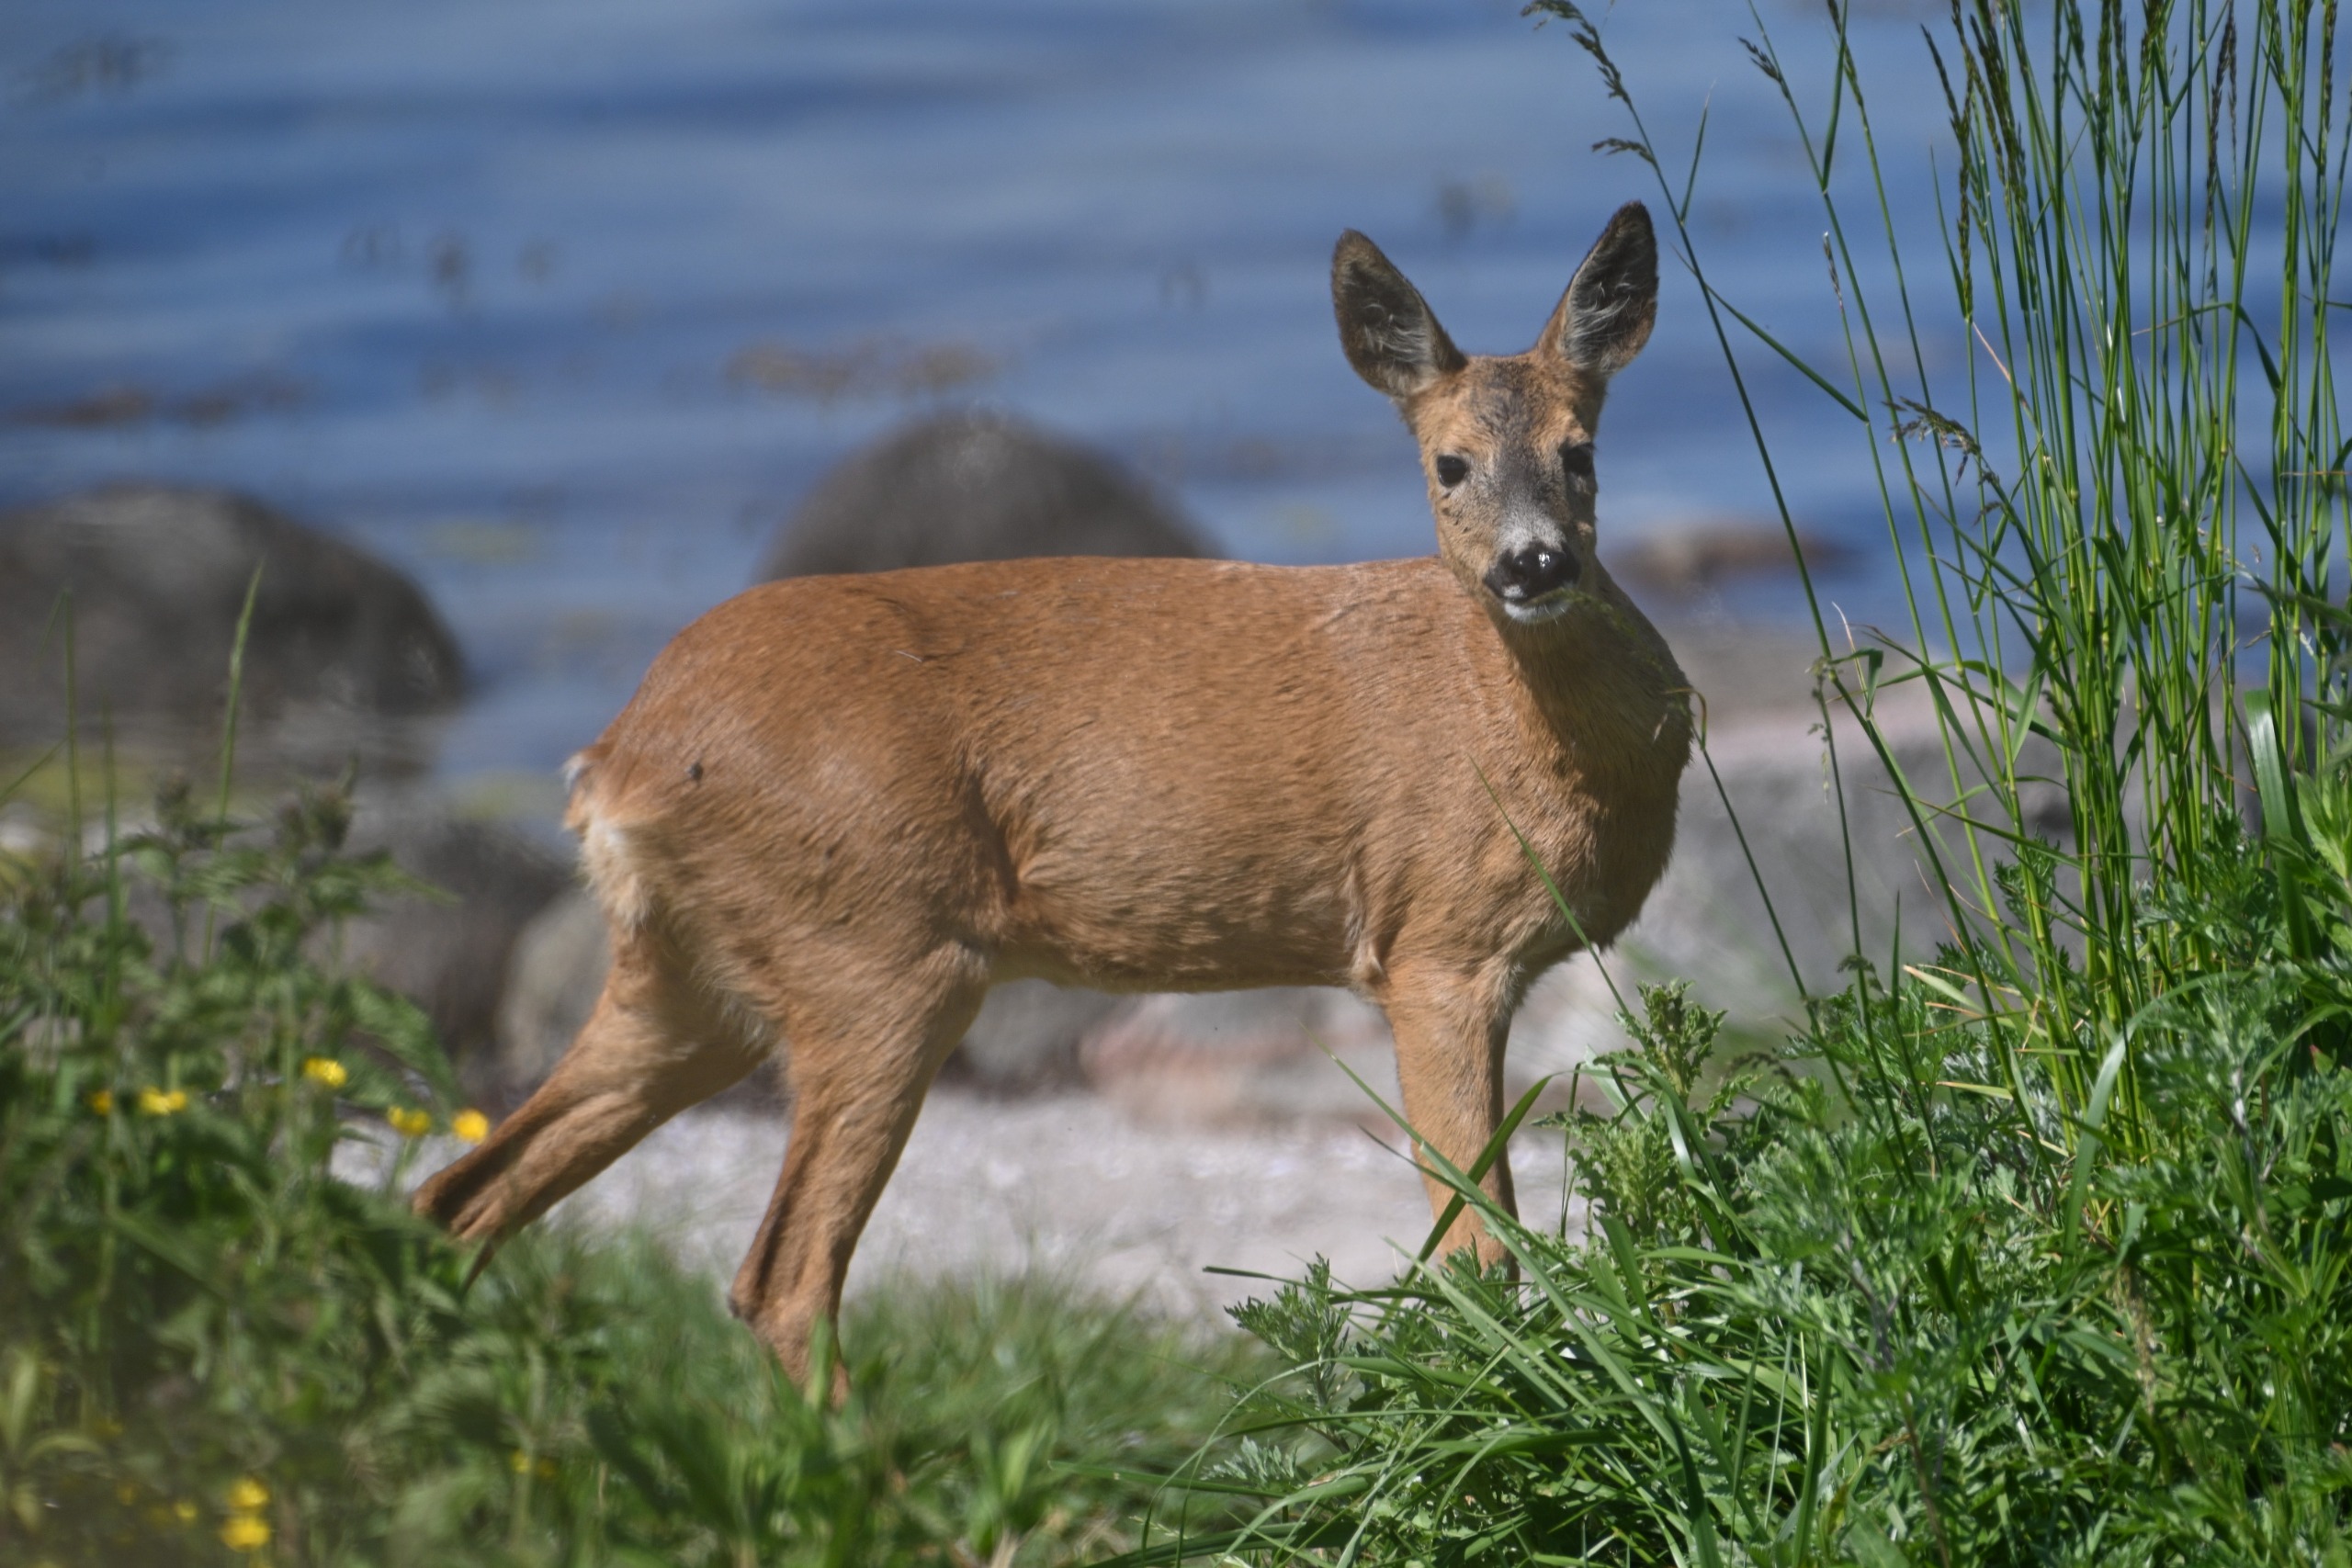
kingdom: Animalia
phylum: Chordata
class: Mammalia
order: Artiodactyla
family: Cervidae
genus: Capreolus
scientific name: Capreolus capreolus
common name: Rådyr
